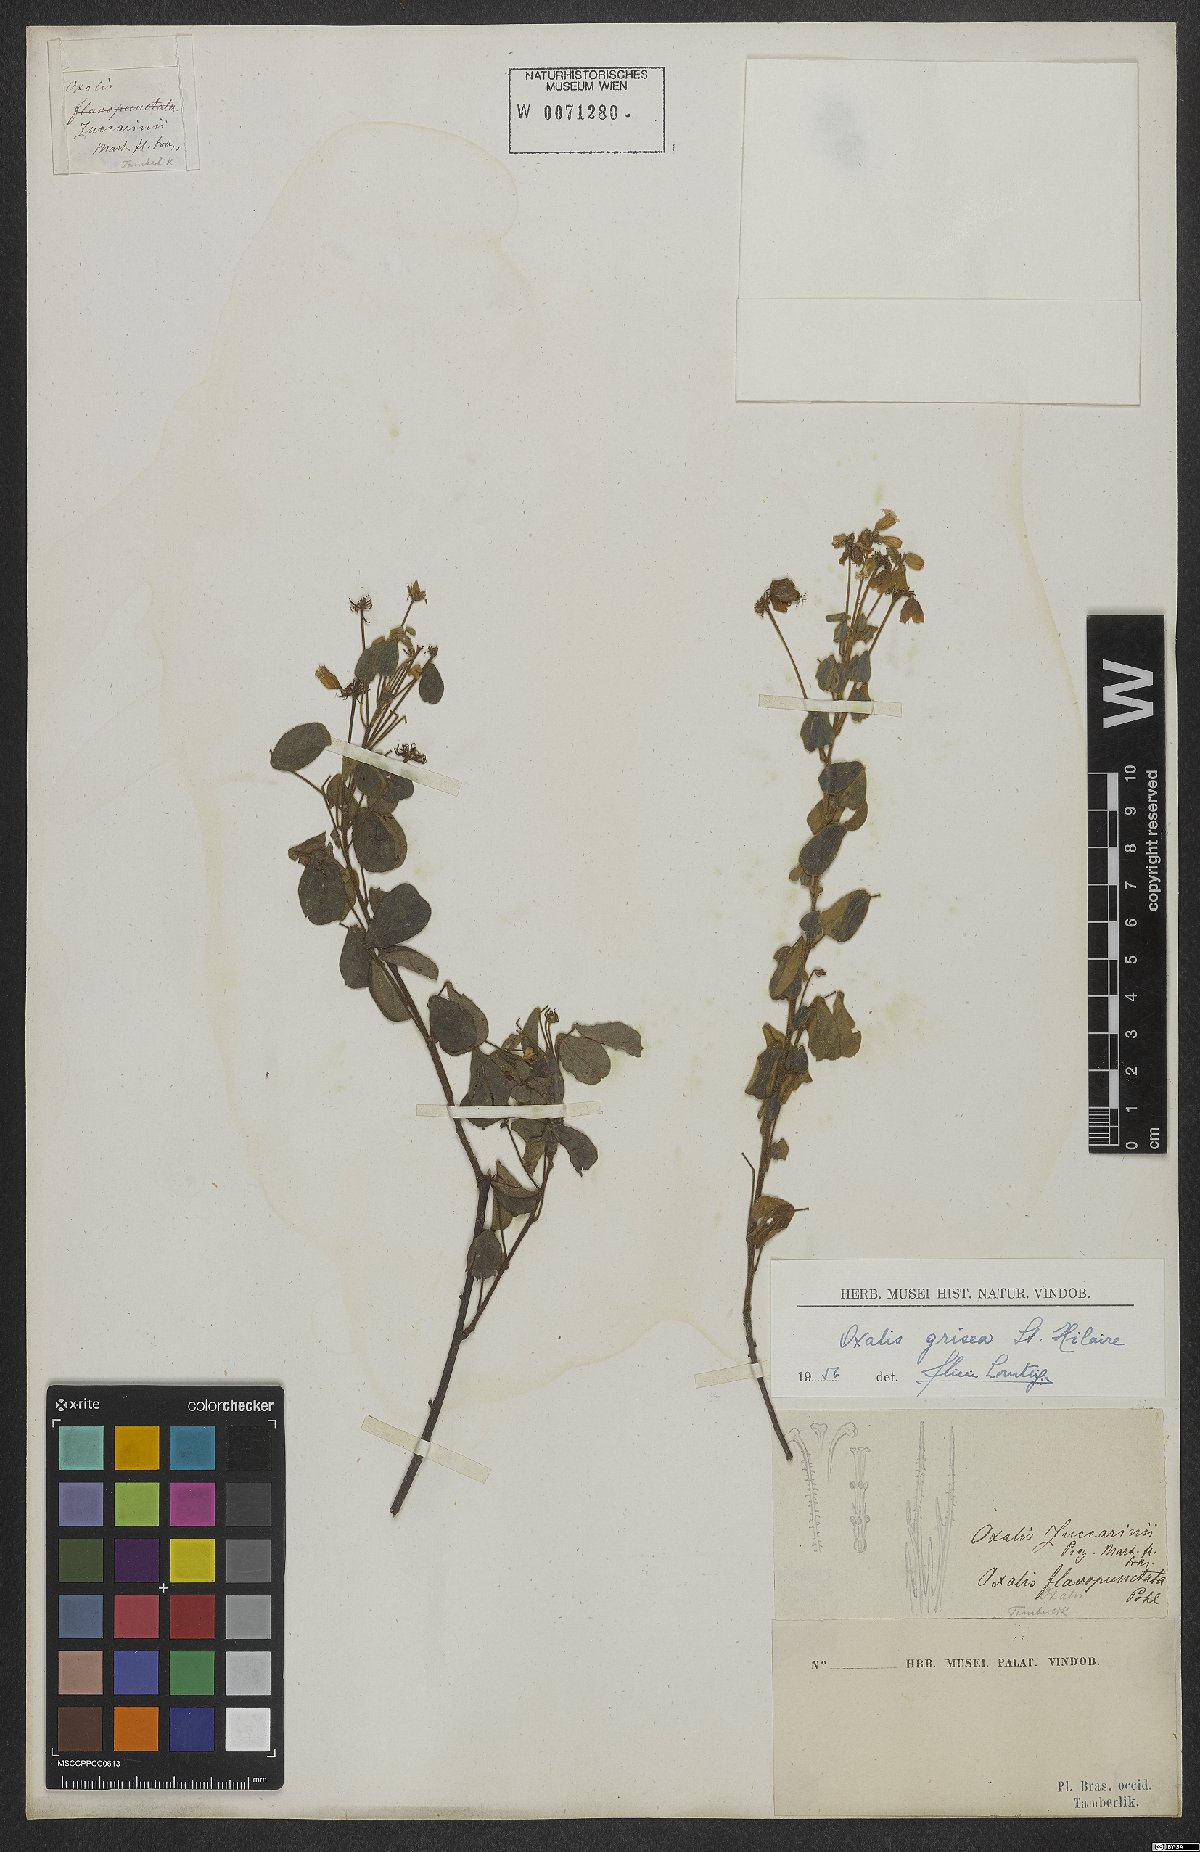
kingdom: Plantae
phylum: Tracheophyta
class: Magnoliopsida
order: Oxalidales
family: Oxalidaceae
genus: Oxalis
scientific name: Oxalis grisea
